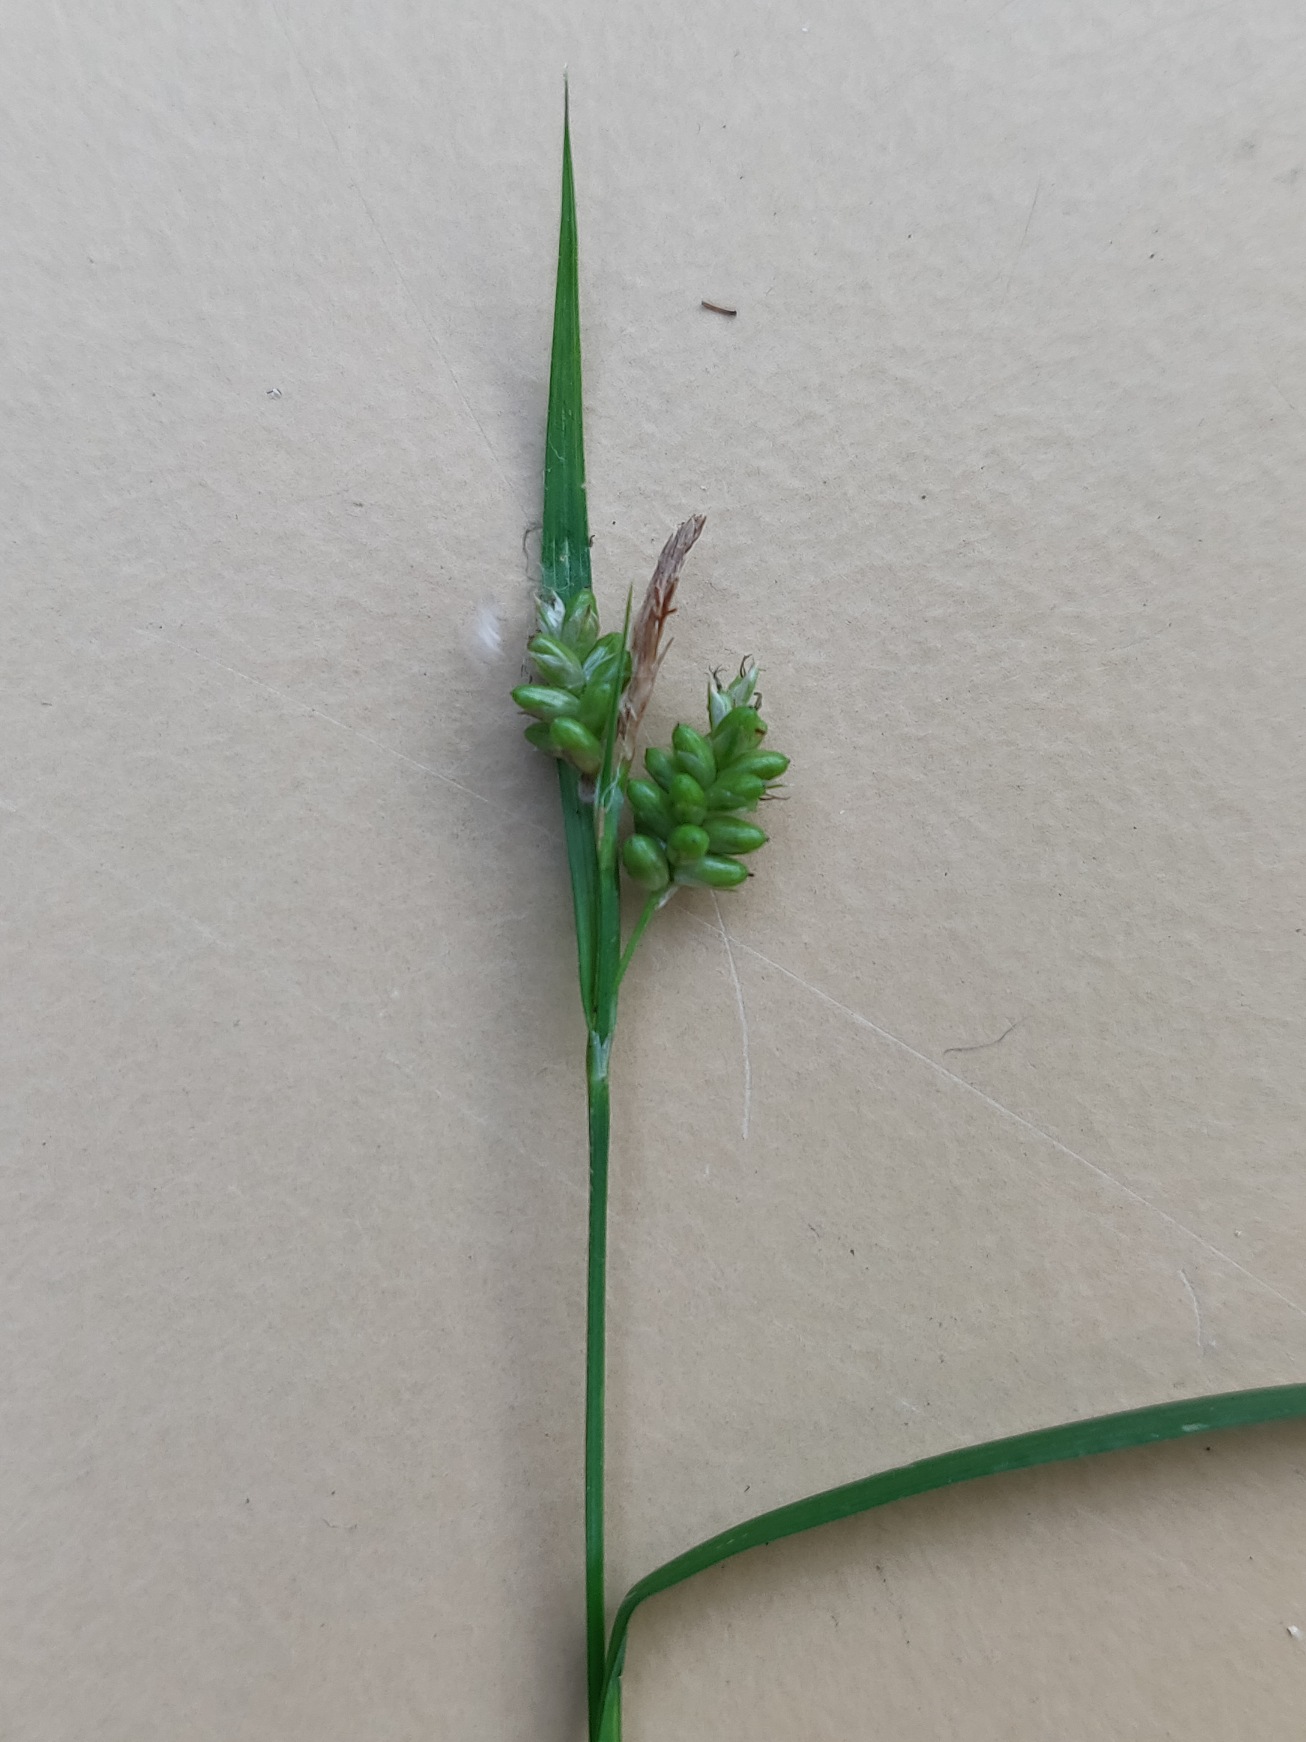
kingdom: Plantae
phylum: Tracheophyta
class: Liliopsida
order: Poales
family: Cyperaceae
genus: Carex
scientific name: Carex pallescens
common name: Bleg star
